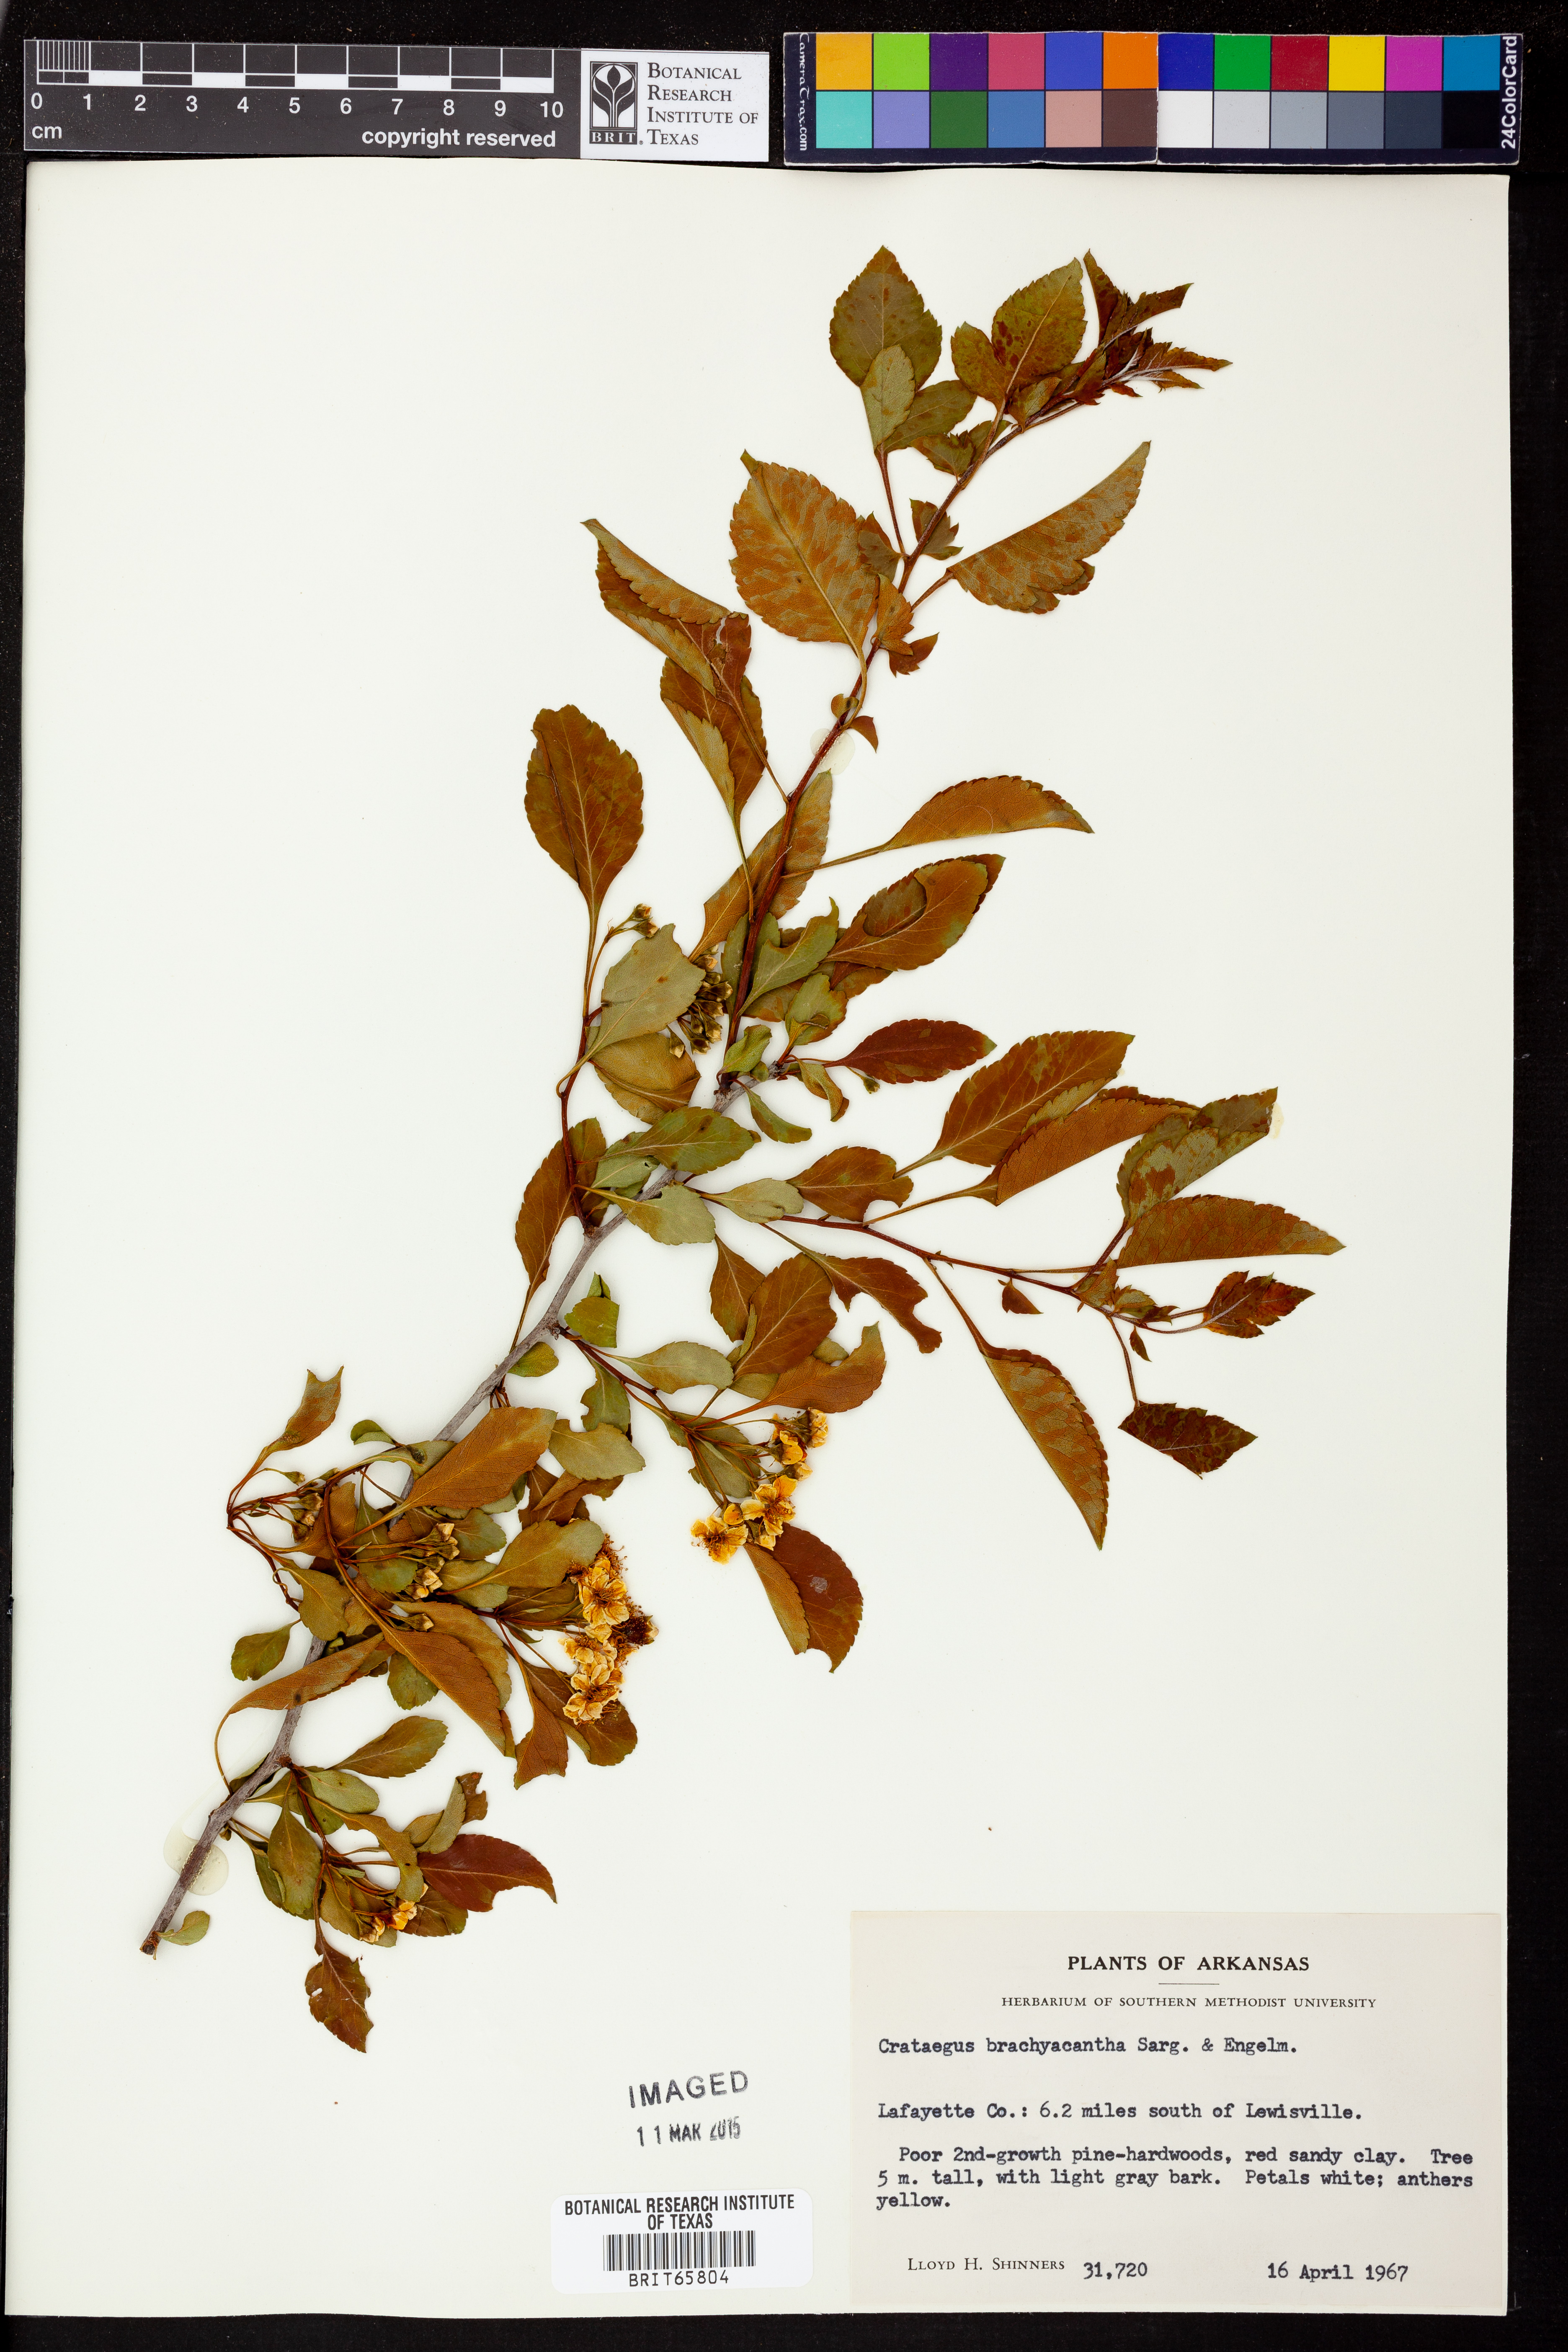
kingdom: Plantae
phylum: Tracheophyta
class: Magnoliopsida
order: Rosales
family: Rosaceae
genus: Crataegus
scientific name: Crataegus brachyacantha
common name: Blueberry-hawthorn
